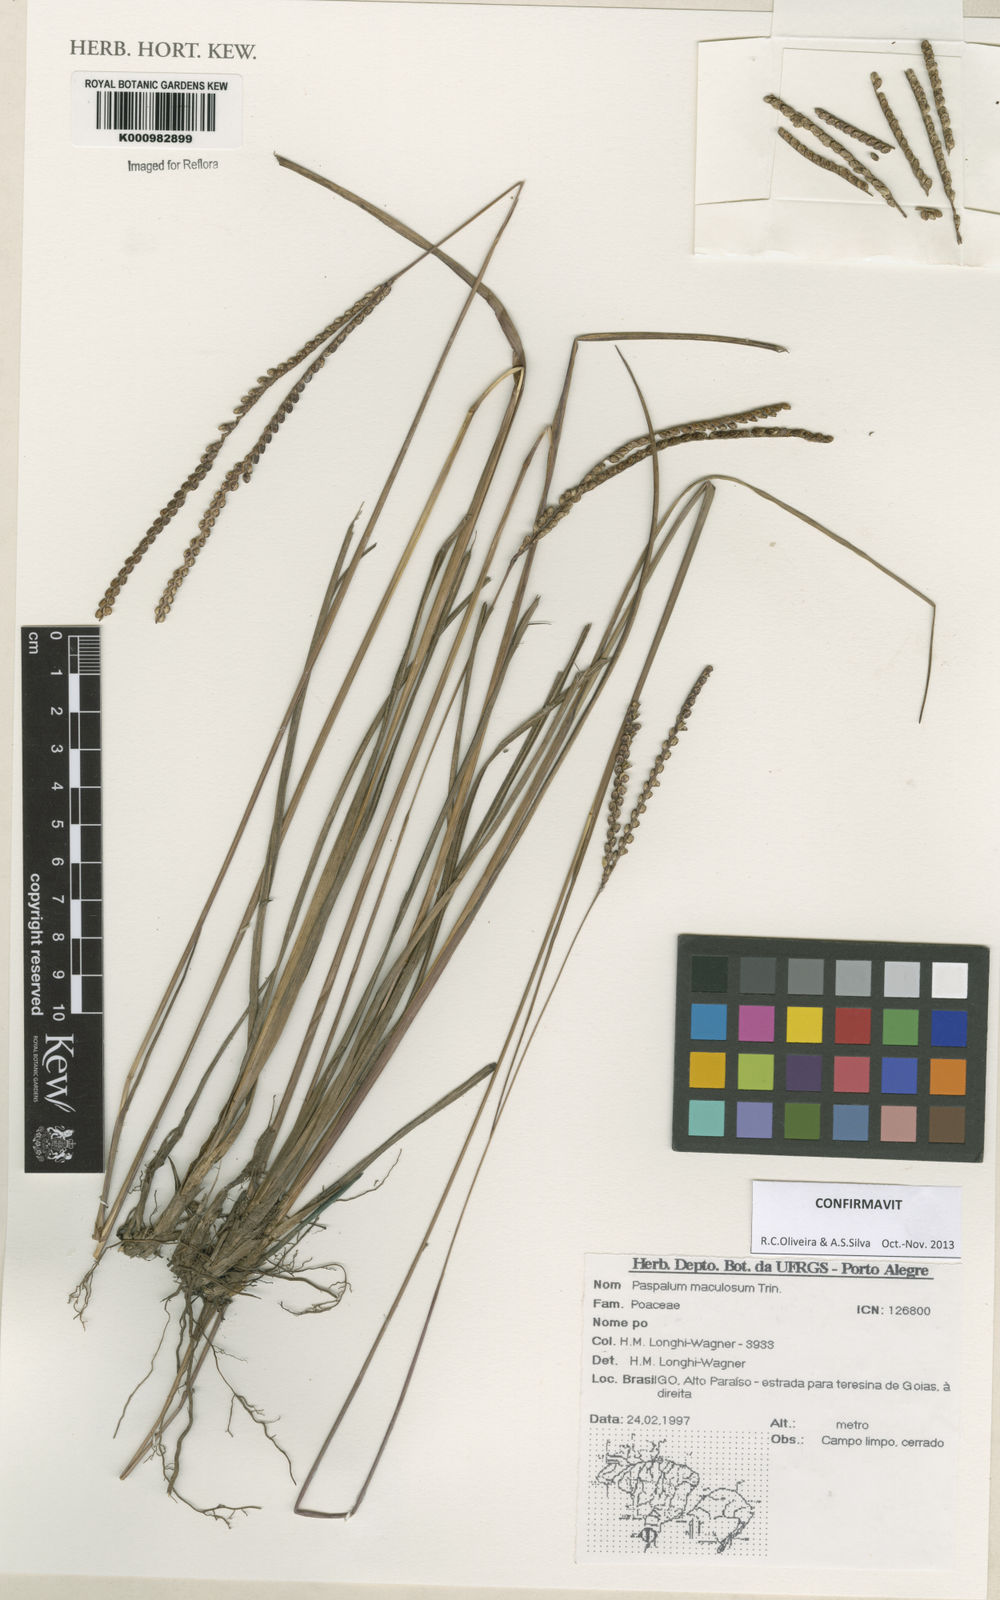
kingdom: Plantae
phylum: Tracheophyta
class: Liliopsida
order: Poales
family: Poaceae
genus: Paspalum
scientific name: Paspalum maculosum
